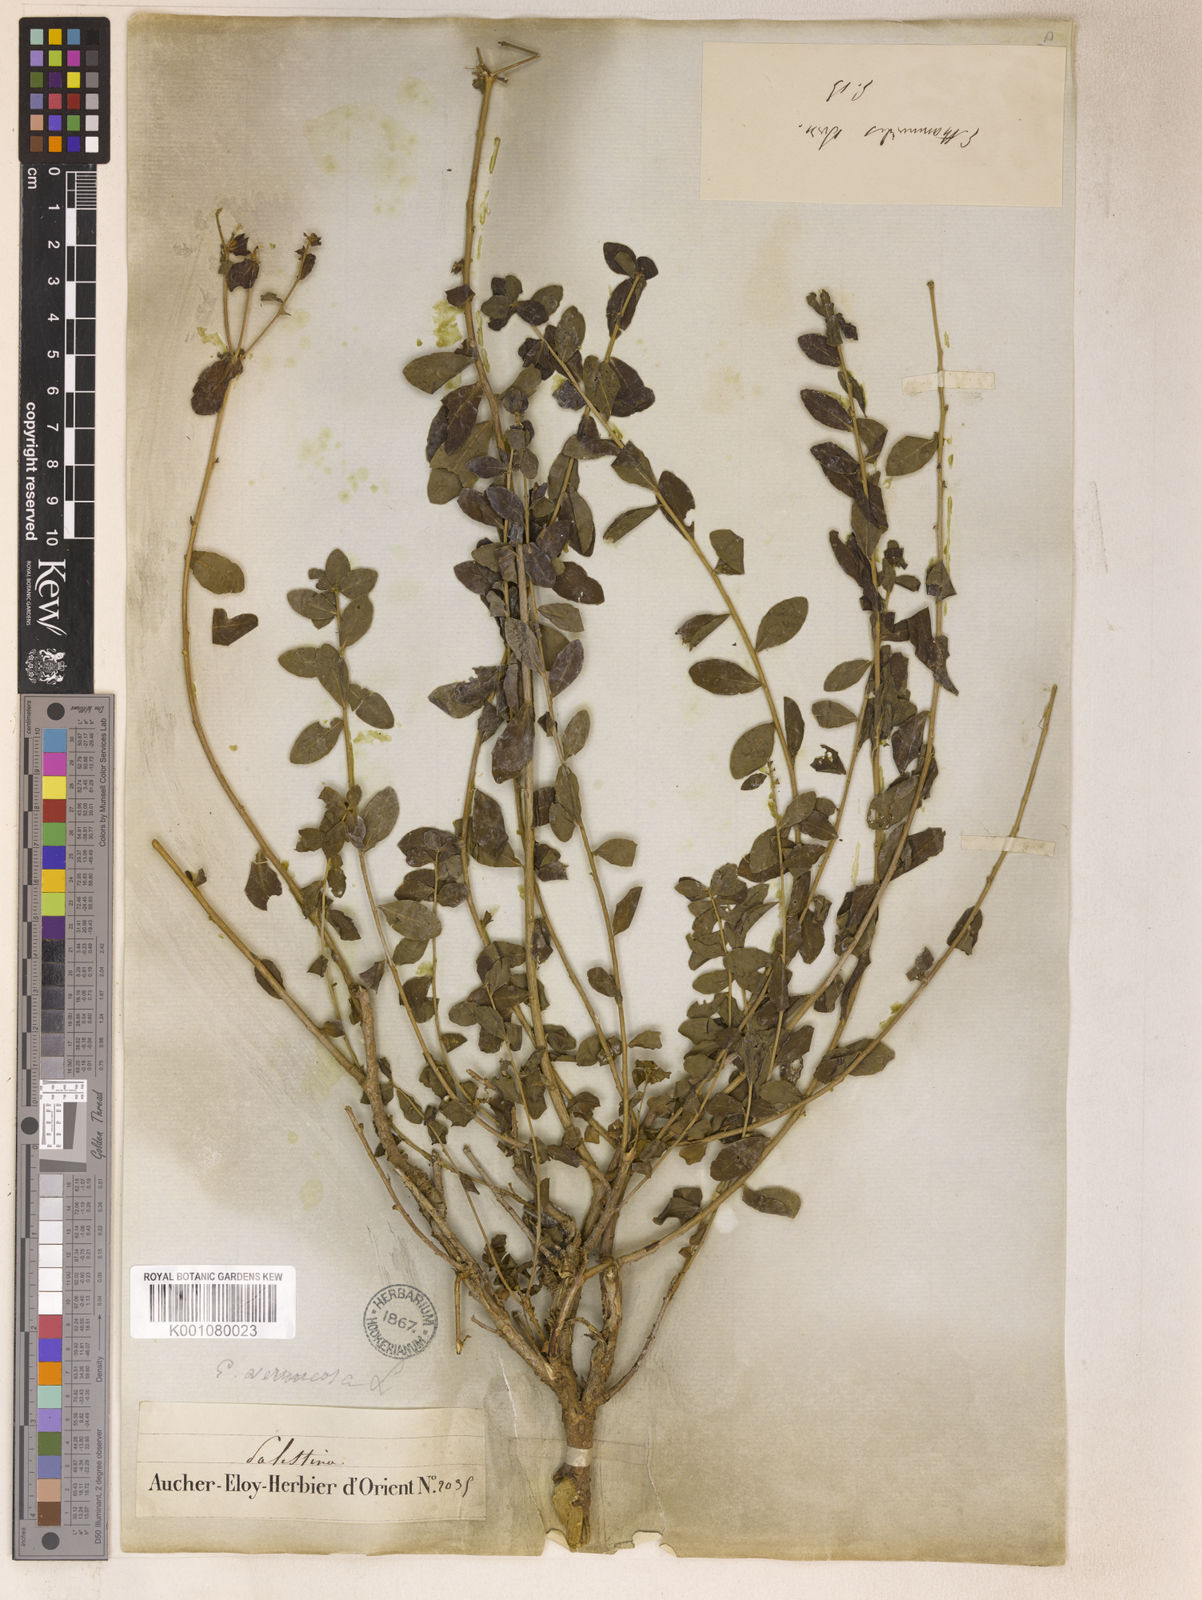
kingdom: Plantae
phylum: Tracheophyta
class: Magnoliopsida
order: Malpighiales
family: Euphorbiaceae
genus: Euphorbia
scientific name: Euphorbia bivonae
